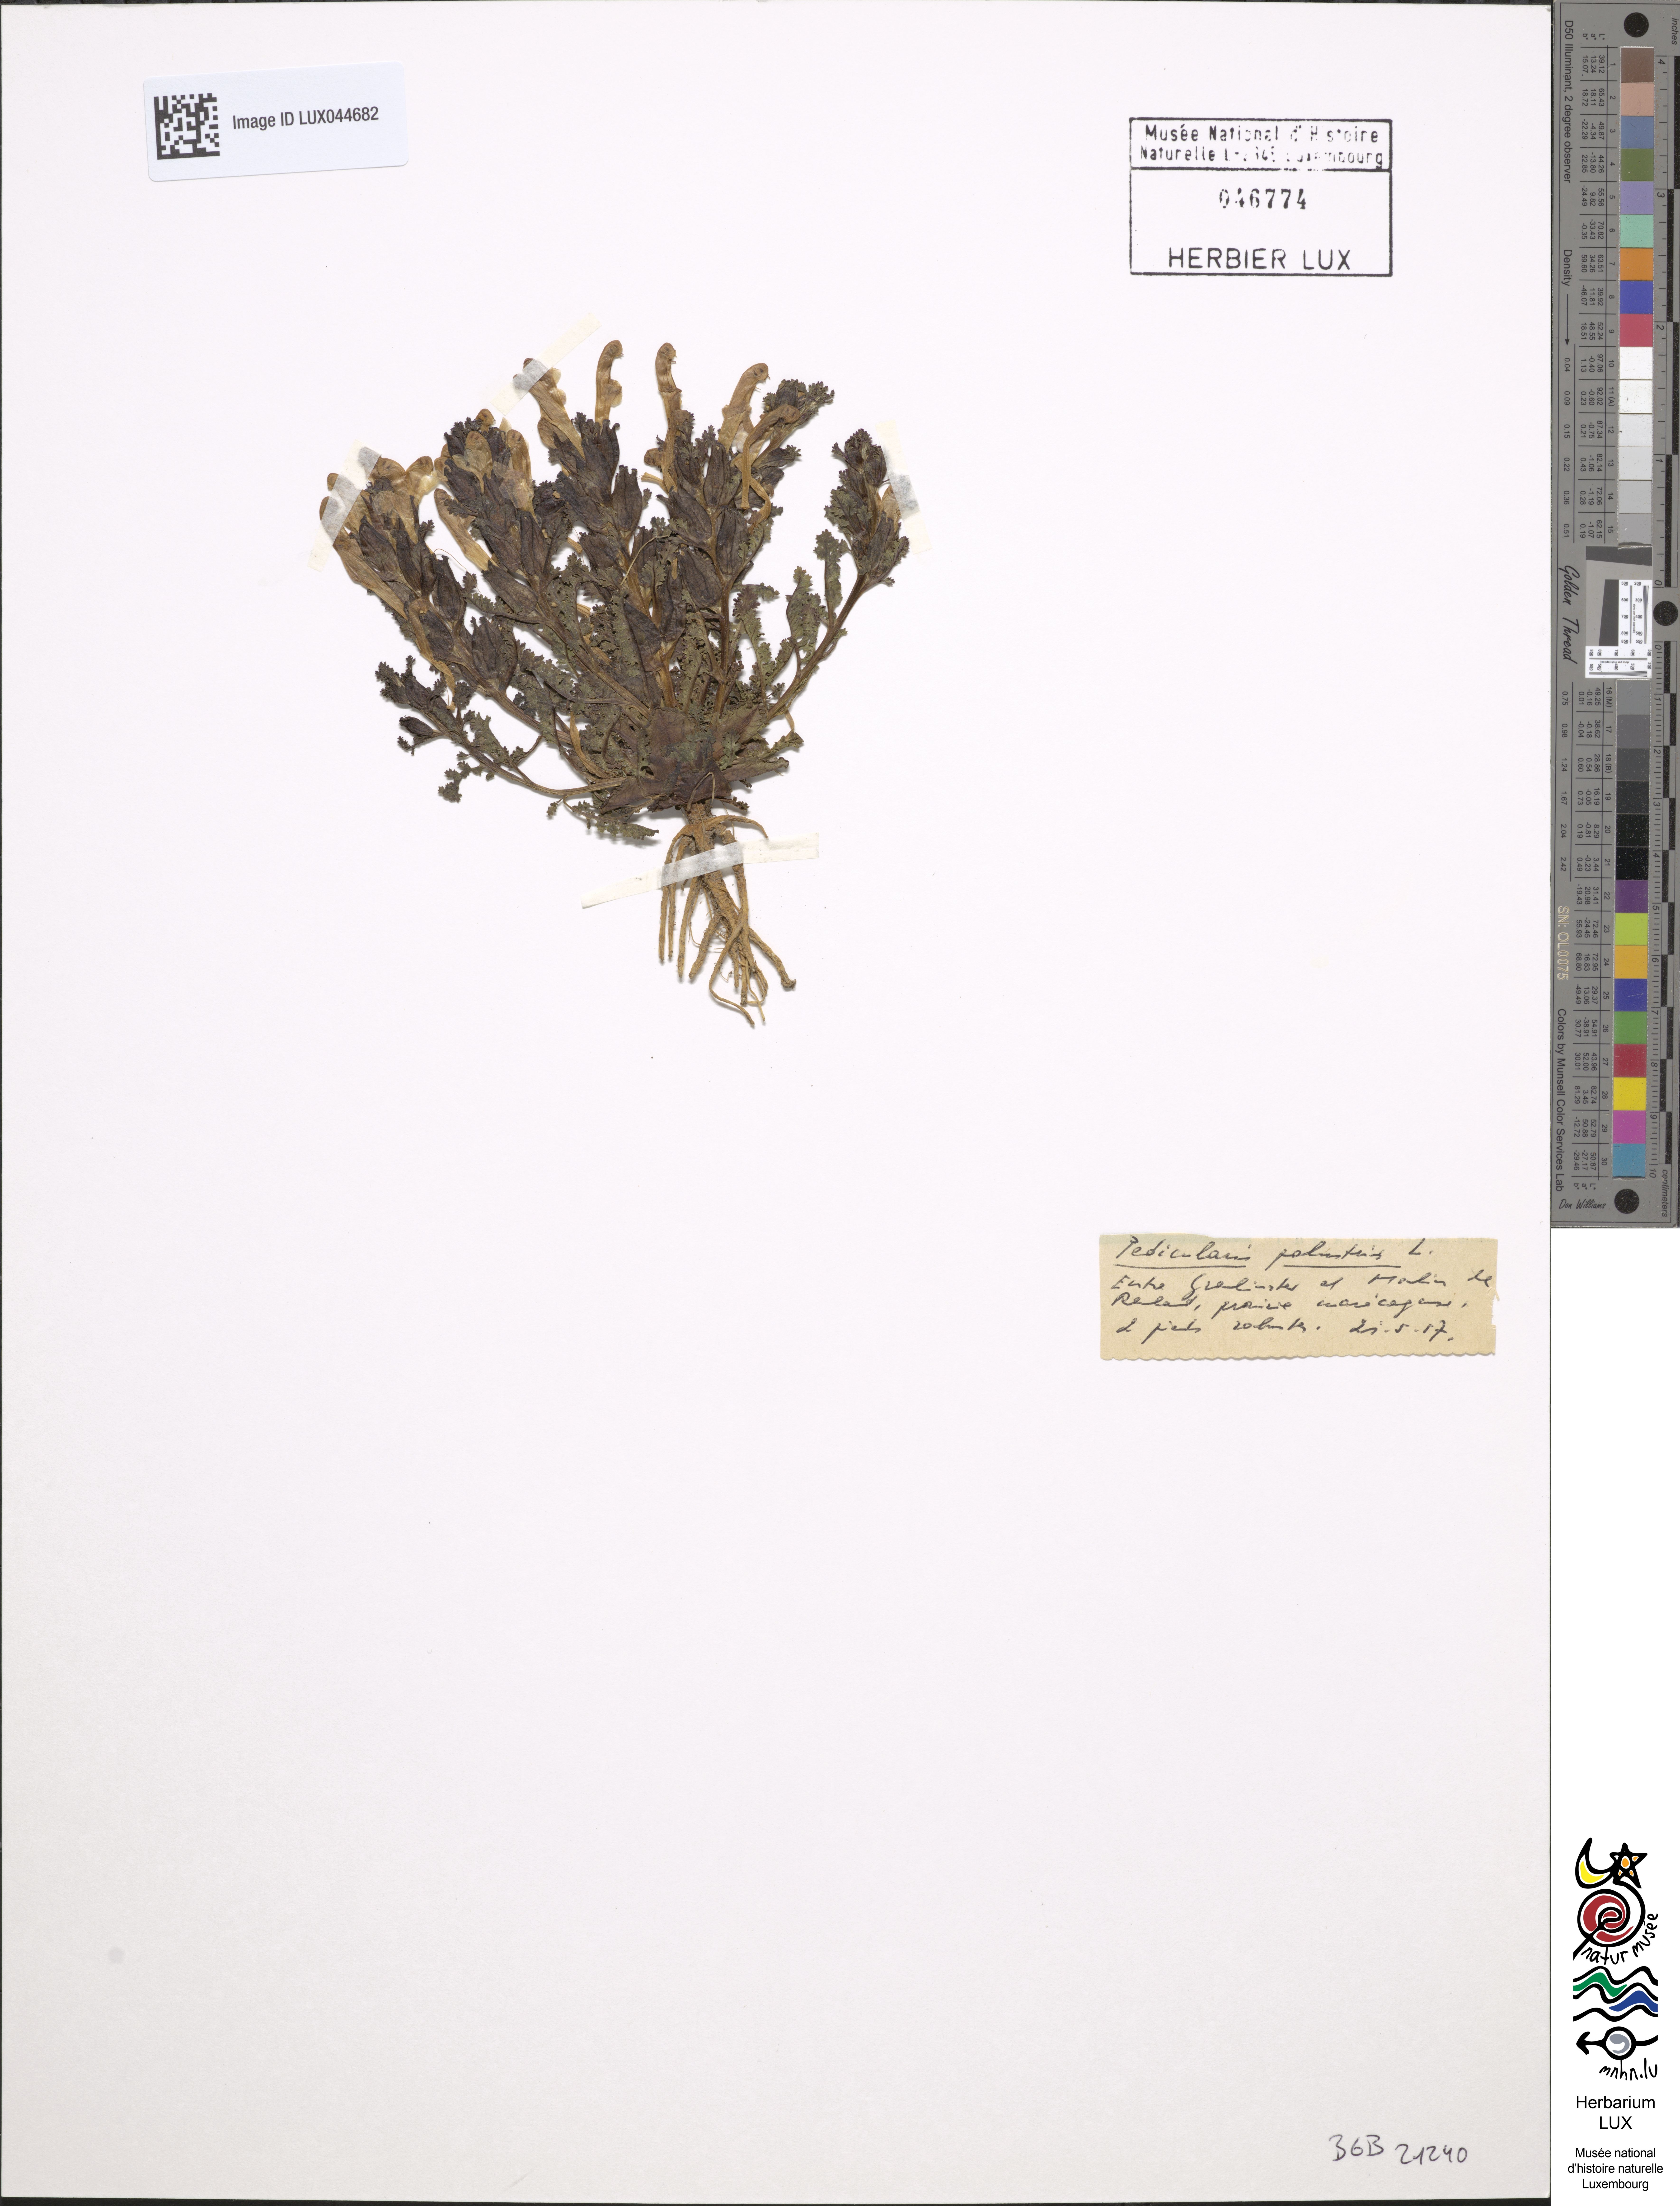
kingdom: Plantae
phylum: Tracheophyta
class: Magnoliopsida
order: Lamiales
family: Orobanchaceae
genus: Pedicularis
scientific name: Pedicularis palustris
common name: Marsh lousewort
